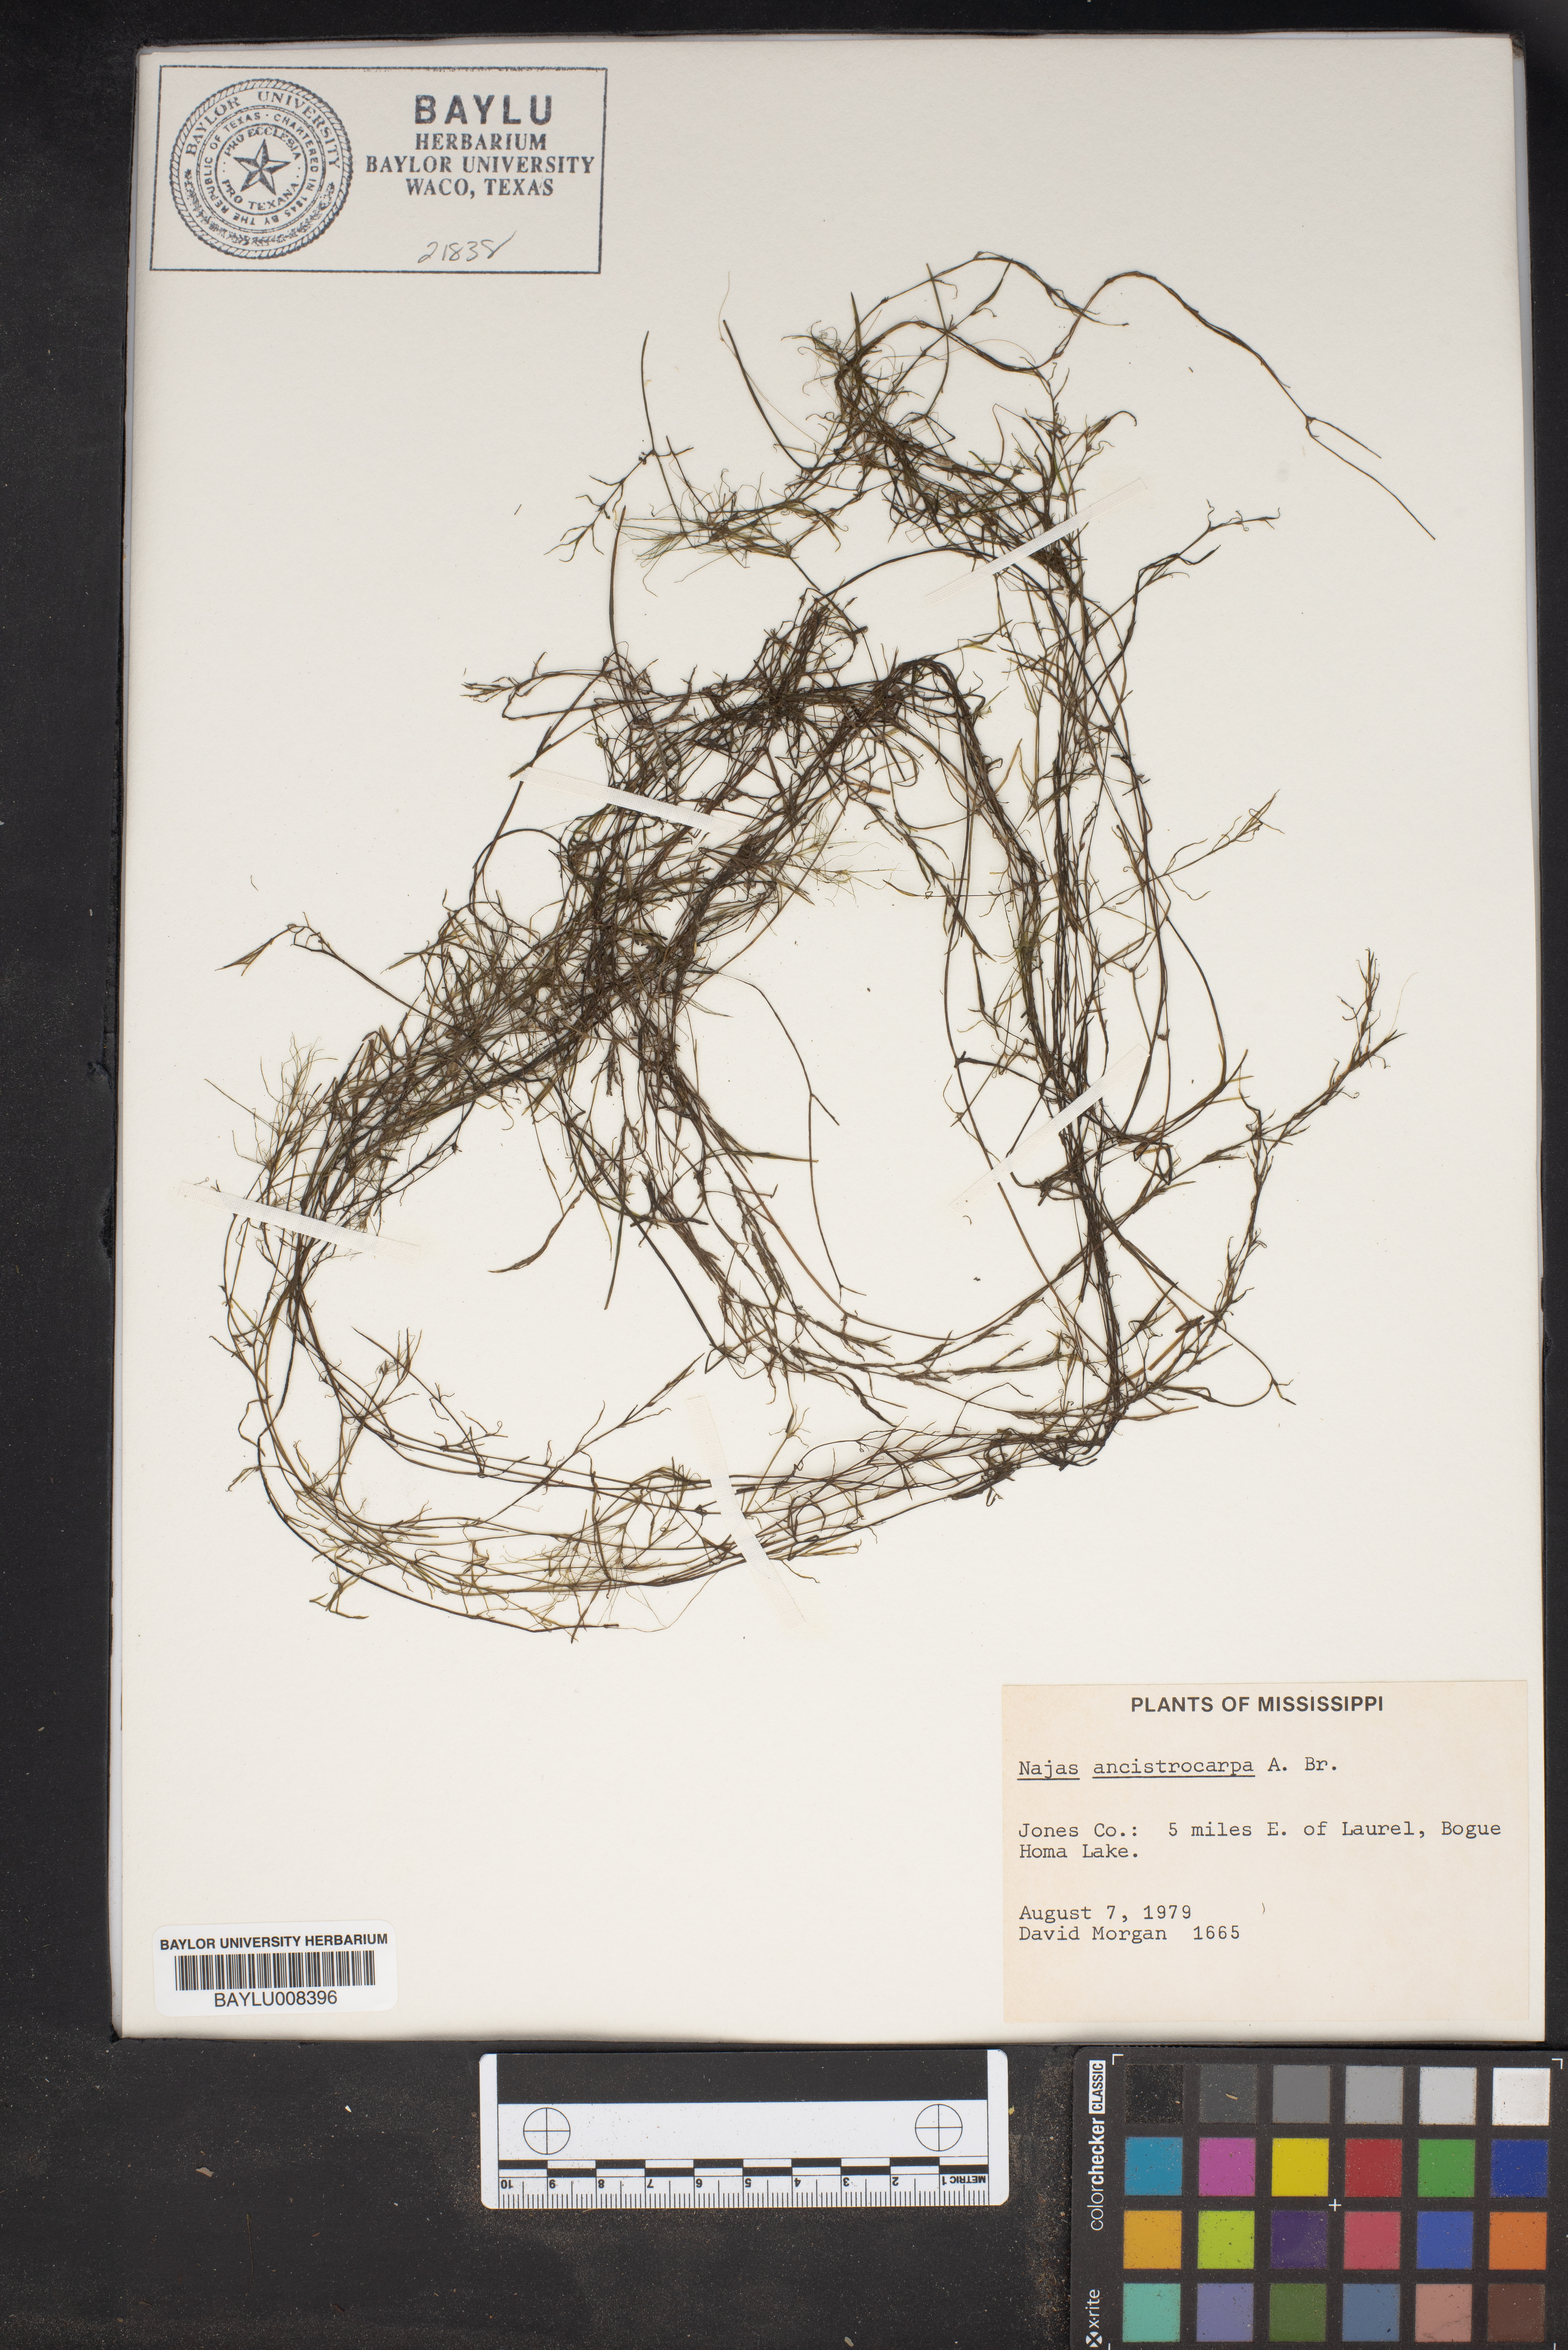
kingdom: Plantae
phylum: Tracheophyta
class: Liliopsida
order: Alismatales
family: Hydrocharitaceae
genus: Najas
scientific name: Najas ancistrocarpa
